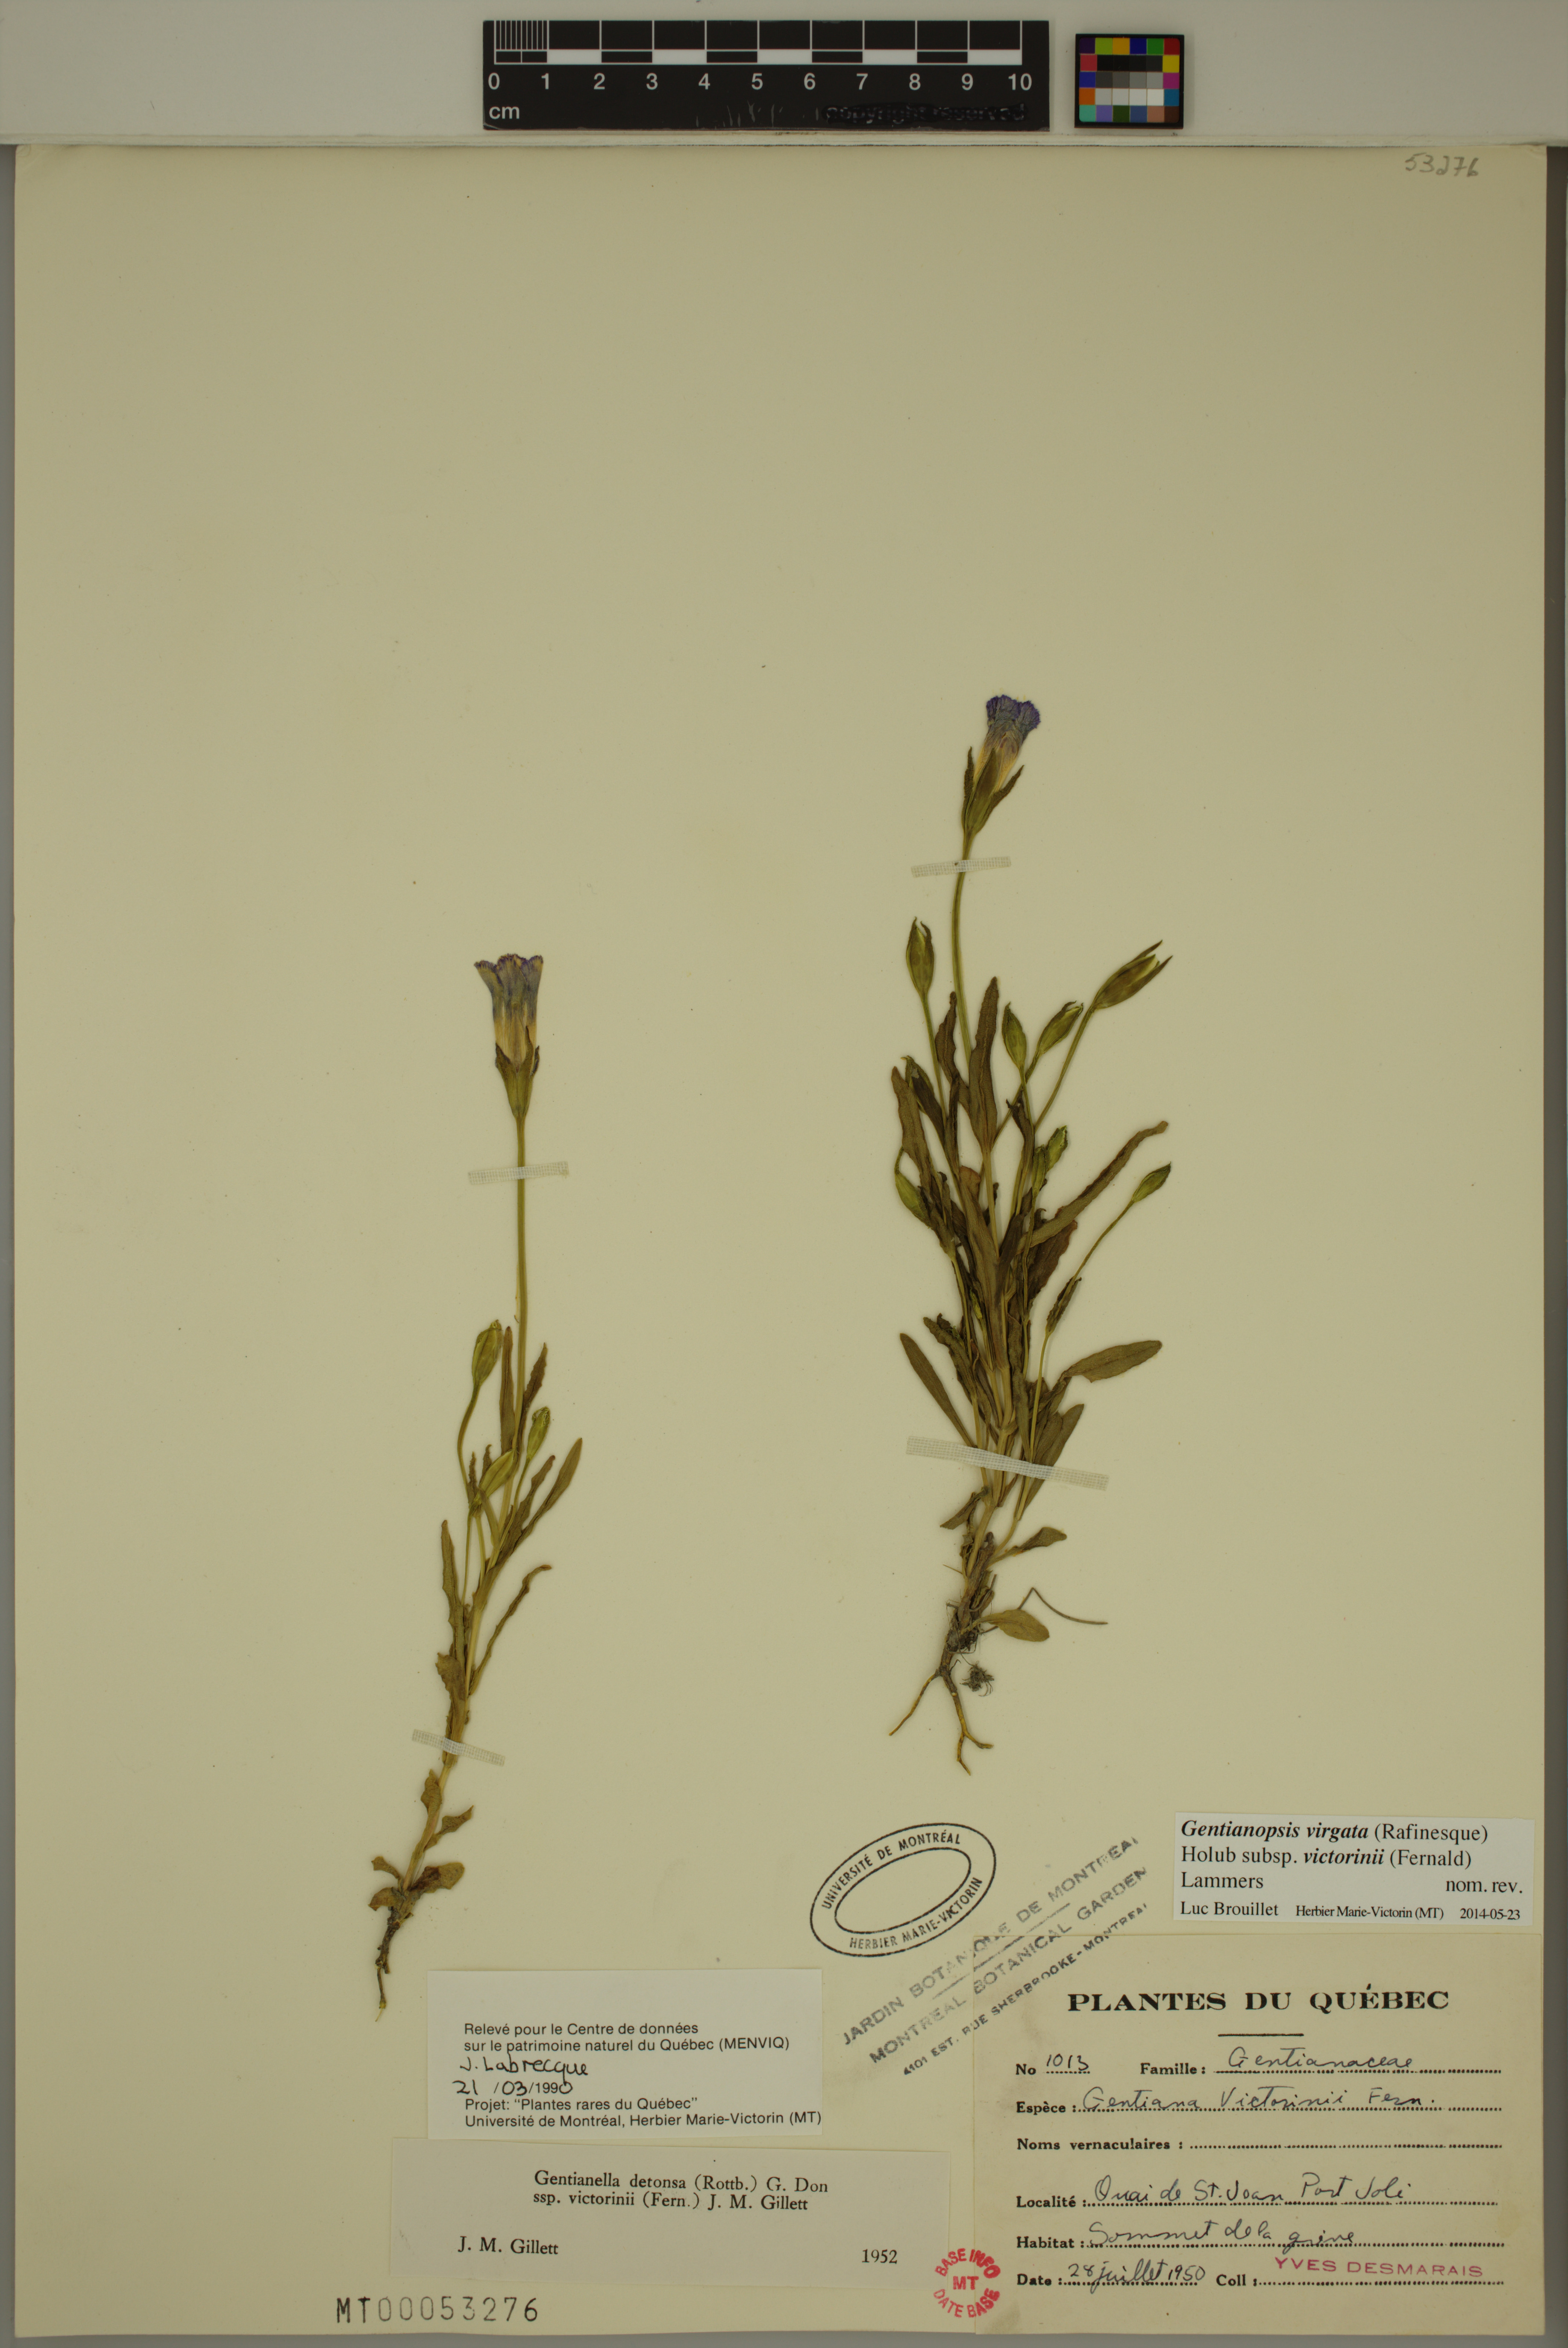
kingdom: Plantae
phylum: Tracheophyta
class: Magnoliopsida
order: Gentianales
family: Gentianaceae
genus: Gentianopsis
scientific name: Gentianopsis victorinii
